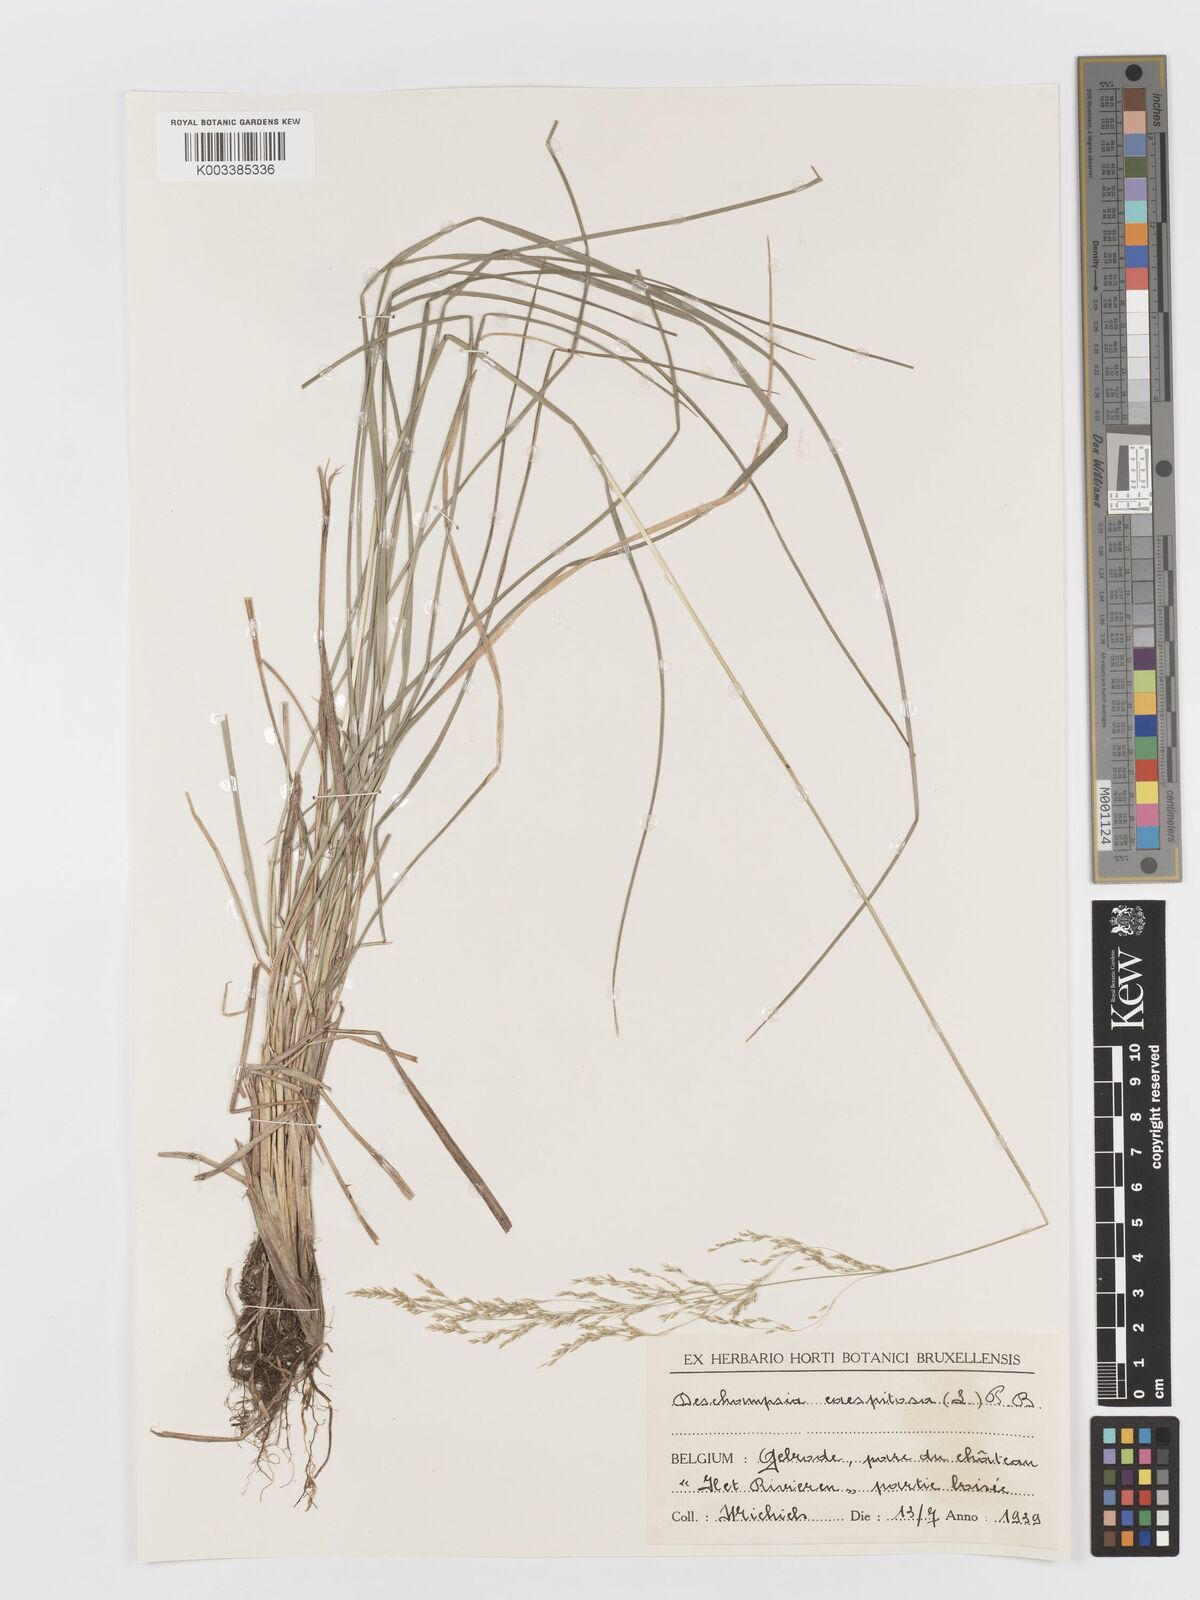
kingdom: Plantae
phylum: Tracheophyta
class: Liliopsida
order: Poales
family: Poaceae
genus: Deschampsia
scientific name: Deschampsia cespitosa
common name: Tufted hair-grass
